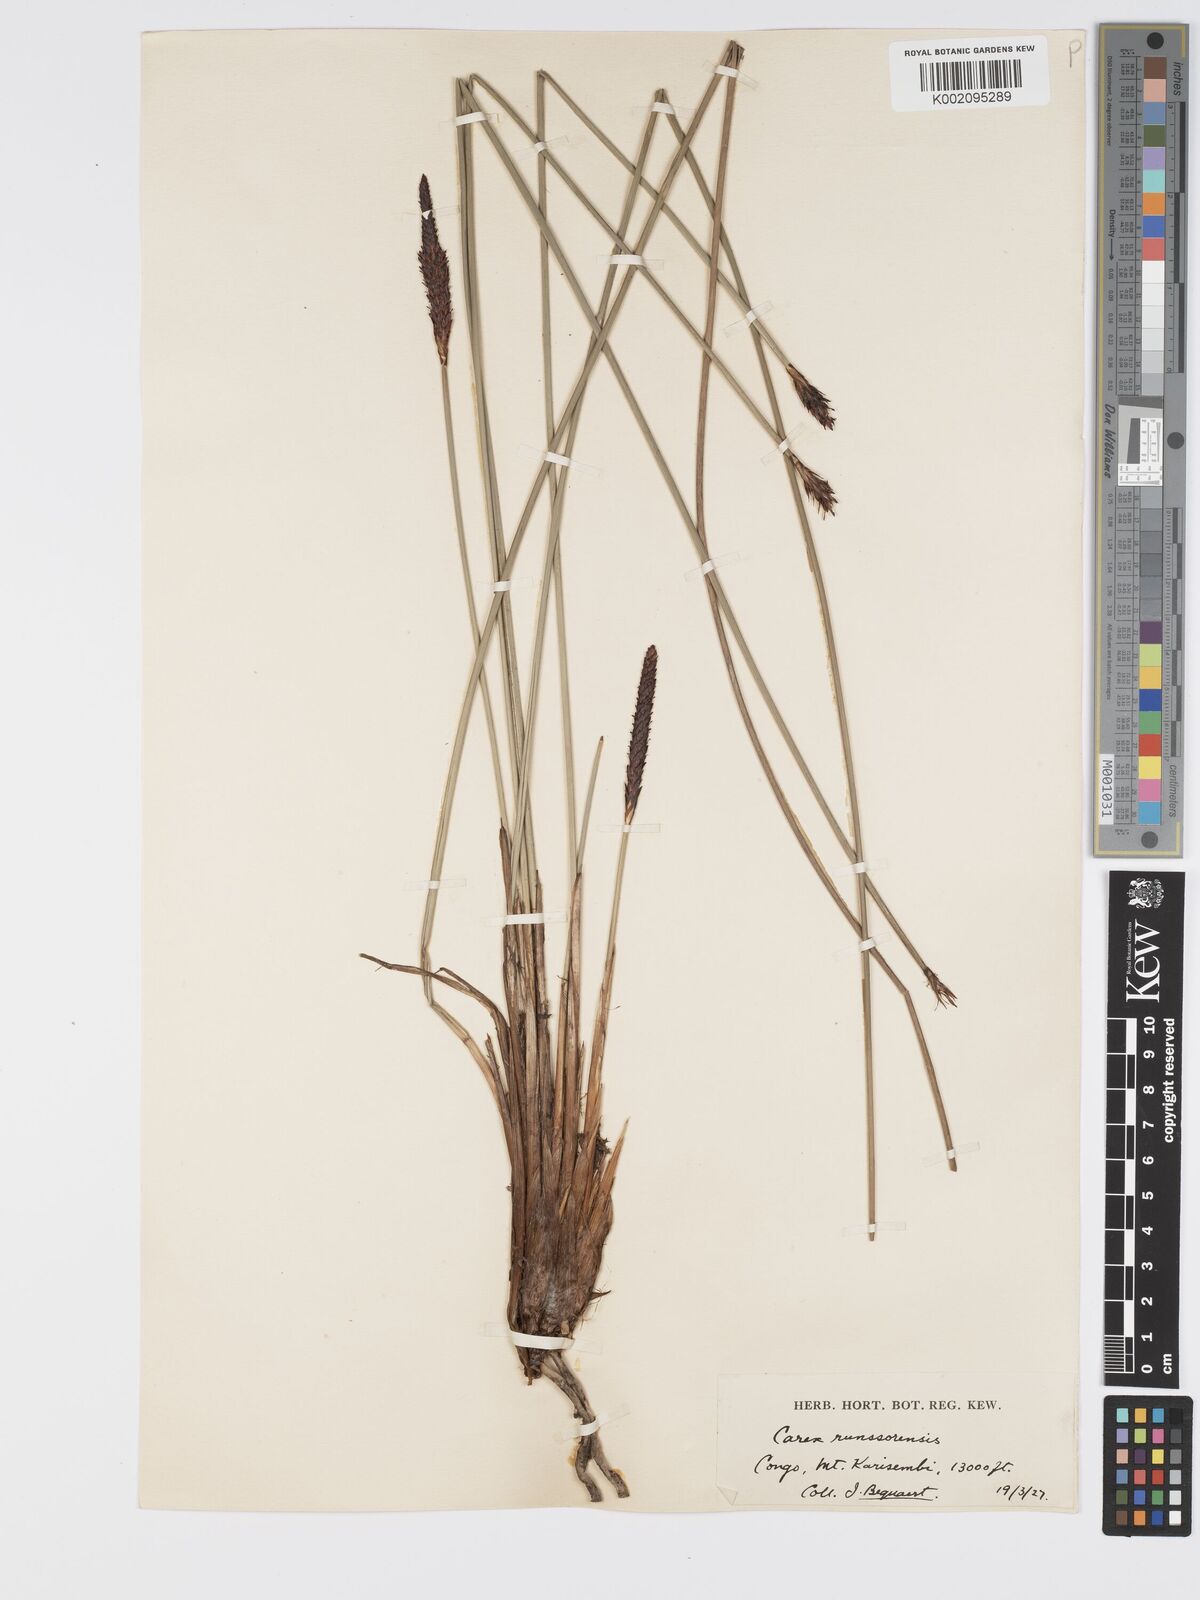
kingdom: Plantae
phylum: Tracheophyta
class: Liliopsida
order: Poales
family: Cyperaceae
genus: Carex
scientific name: Carex runssoroensis
